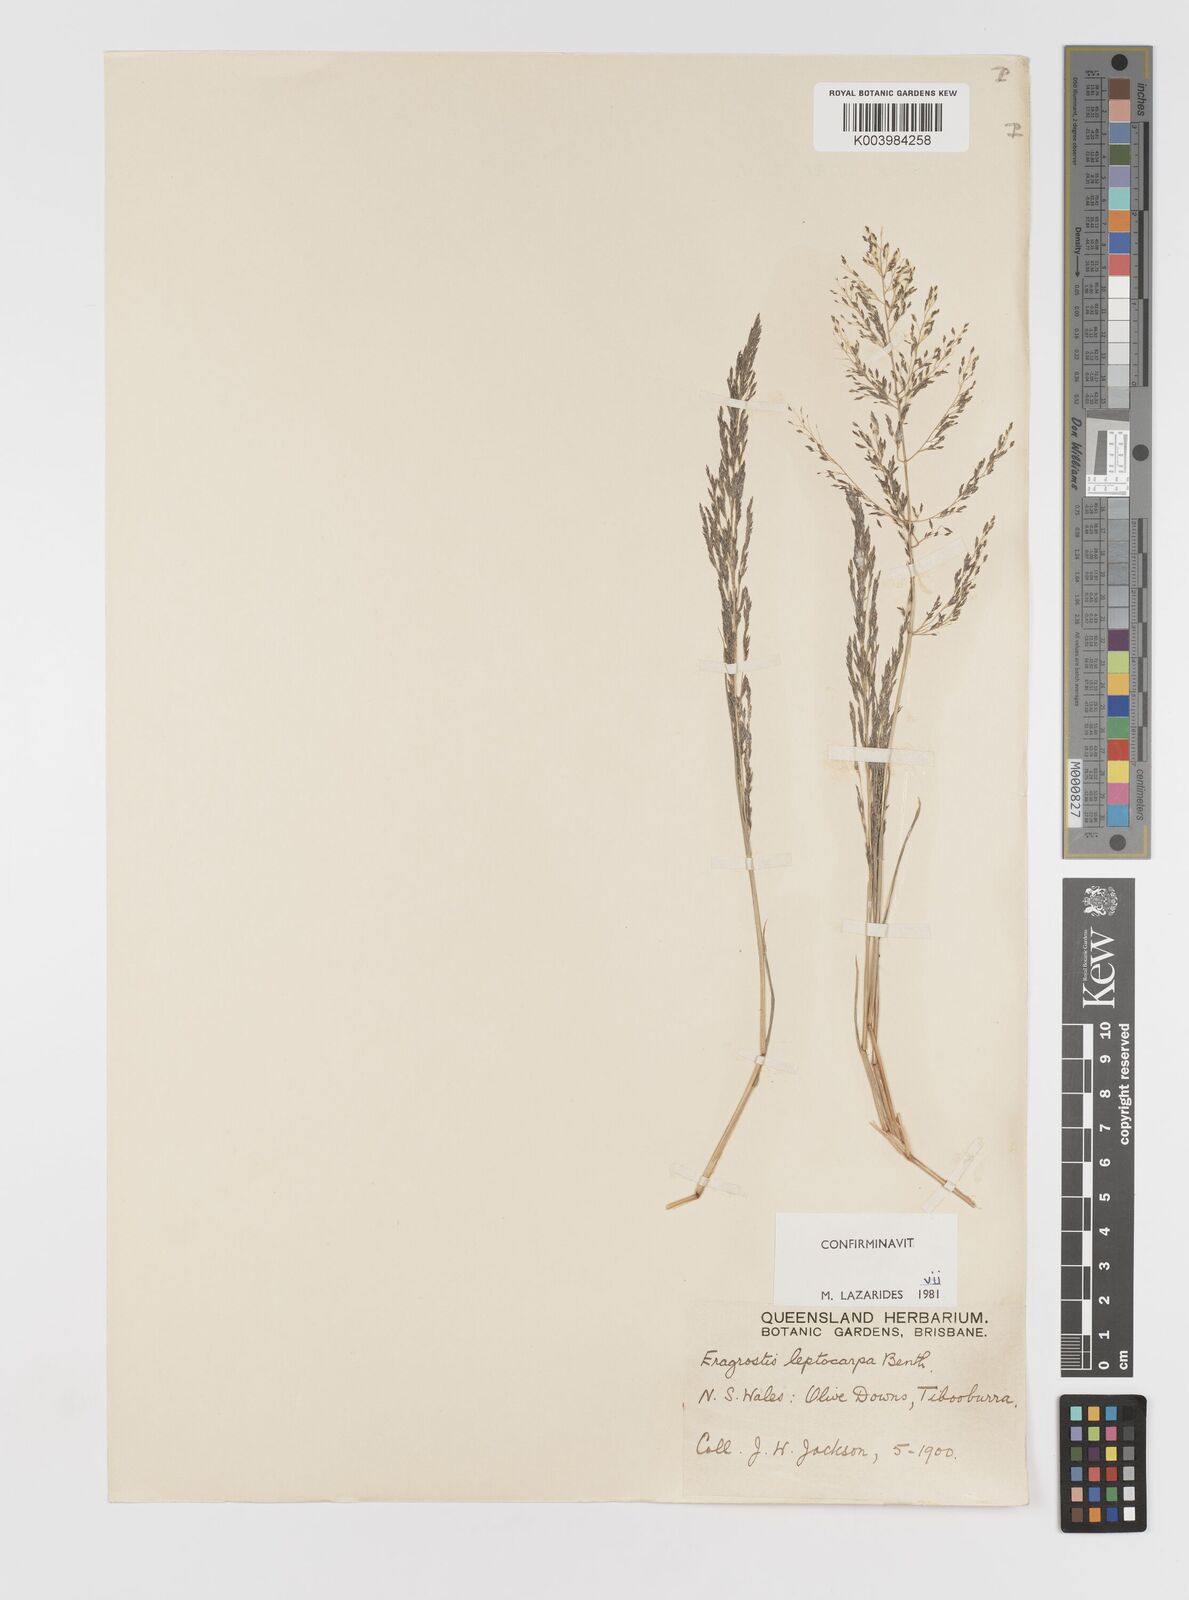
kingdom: Plantae
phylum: Tracheophyta
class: Liliopsida
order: Poales
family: Poaceae
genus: Eragrostis
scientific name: Eragrostis leptocarpa
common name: Drooping love grass
